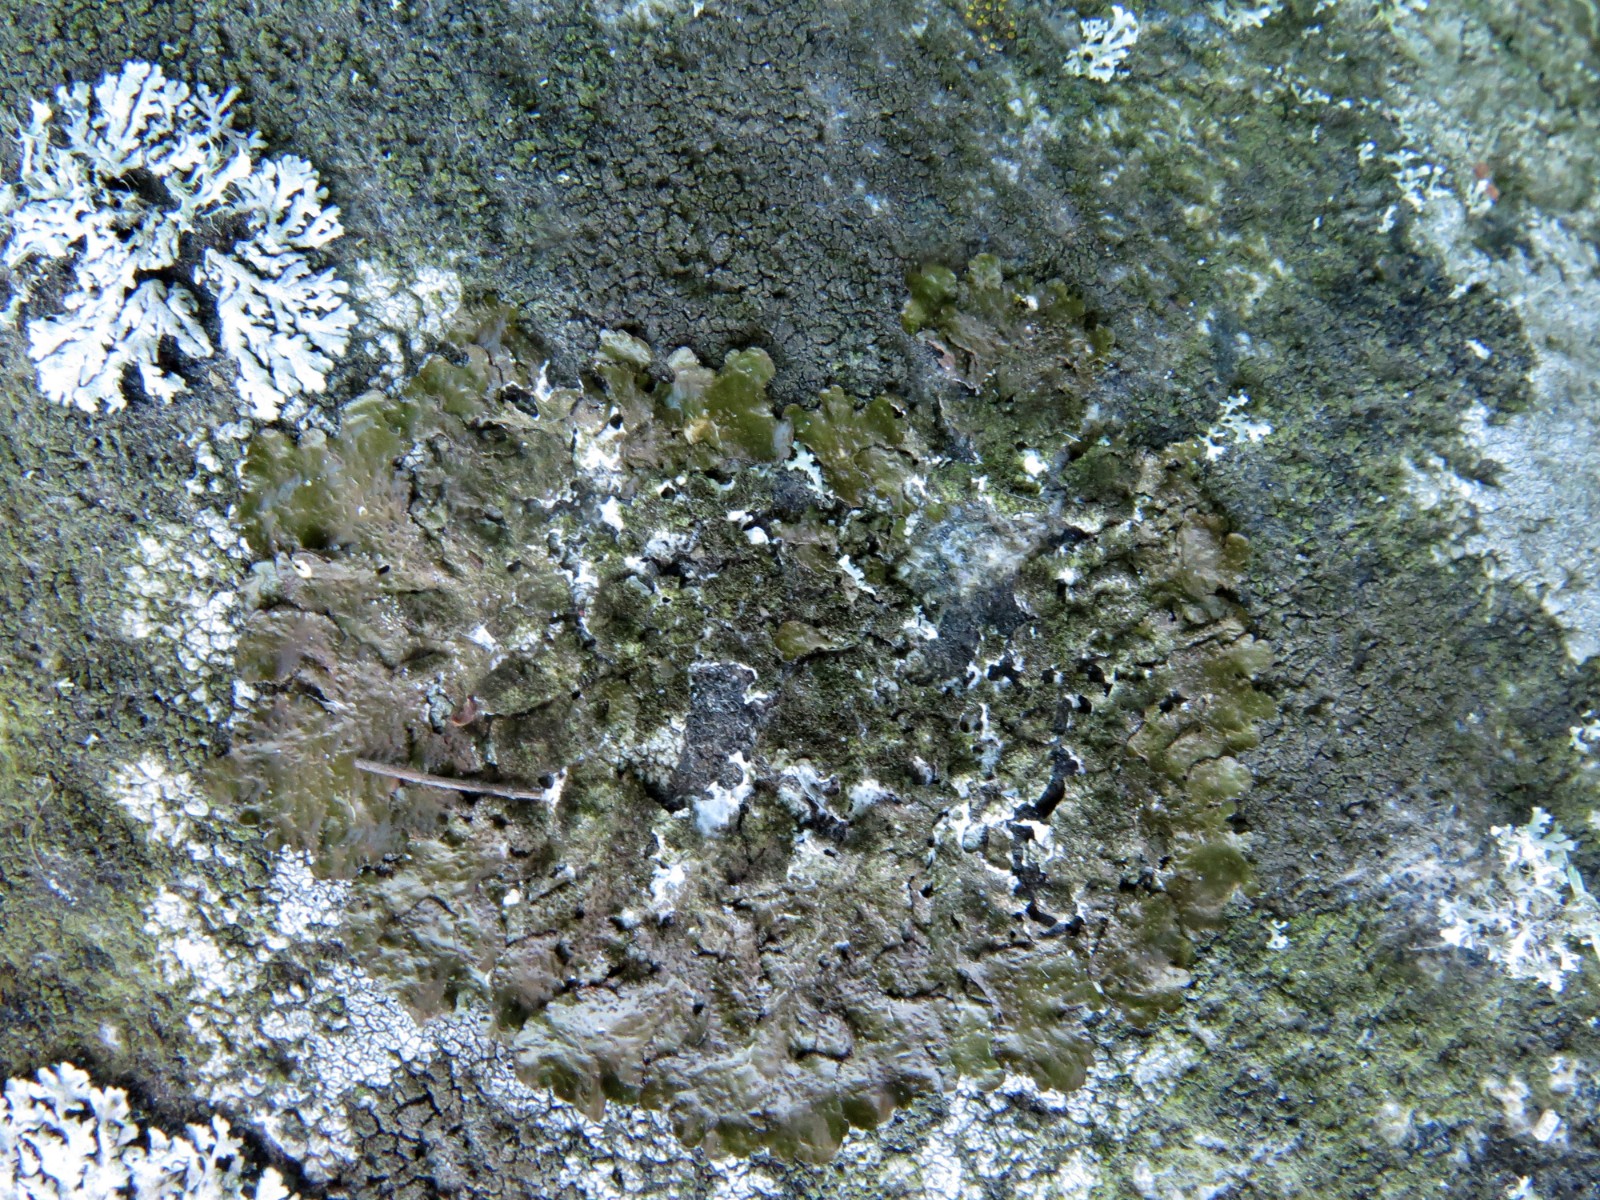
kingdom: Fungi
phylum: Ascomycota
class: Lecanoromycetes
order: Lecanorales
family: Parmeliaceae
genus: Melanelixia
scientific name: Melanelixia subaurifera
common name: guldpudret skållav
